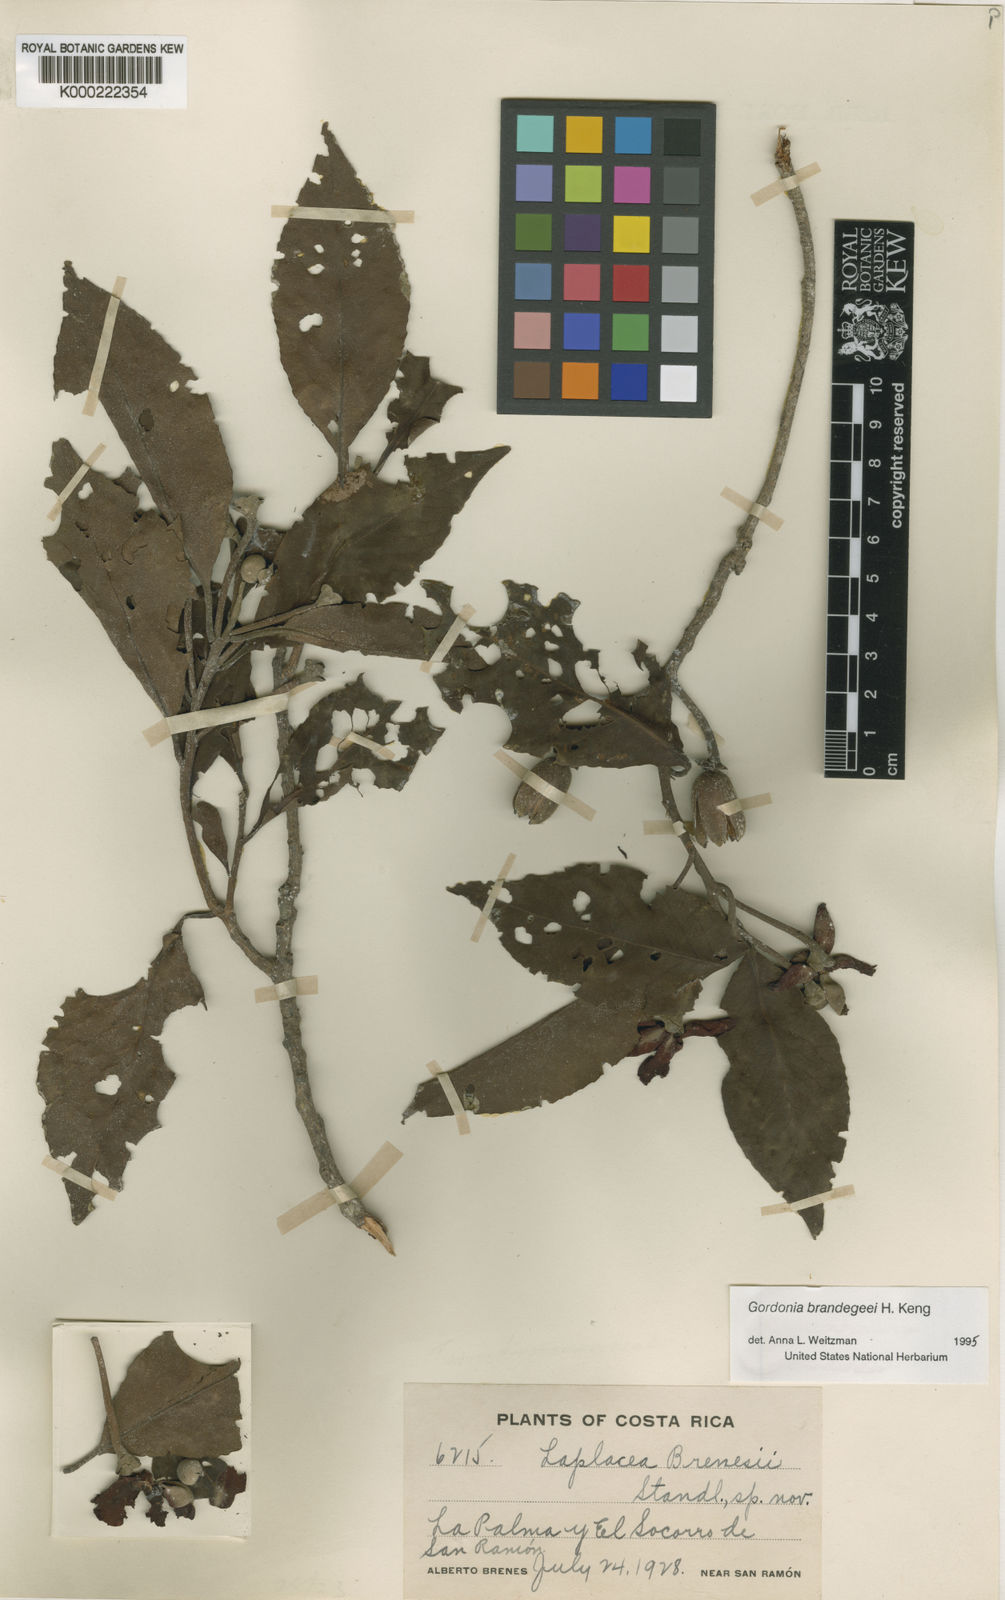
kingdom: Plantae
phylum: Tracheophyta
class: Magnoliopsida
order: Ericales
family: Theaceae
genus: Gordonia
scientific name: Gordonia brenesii
